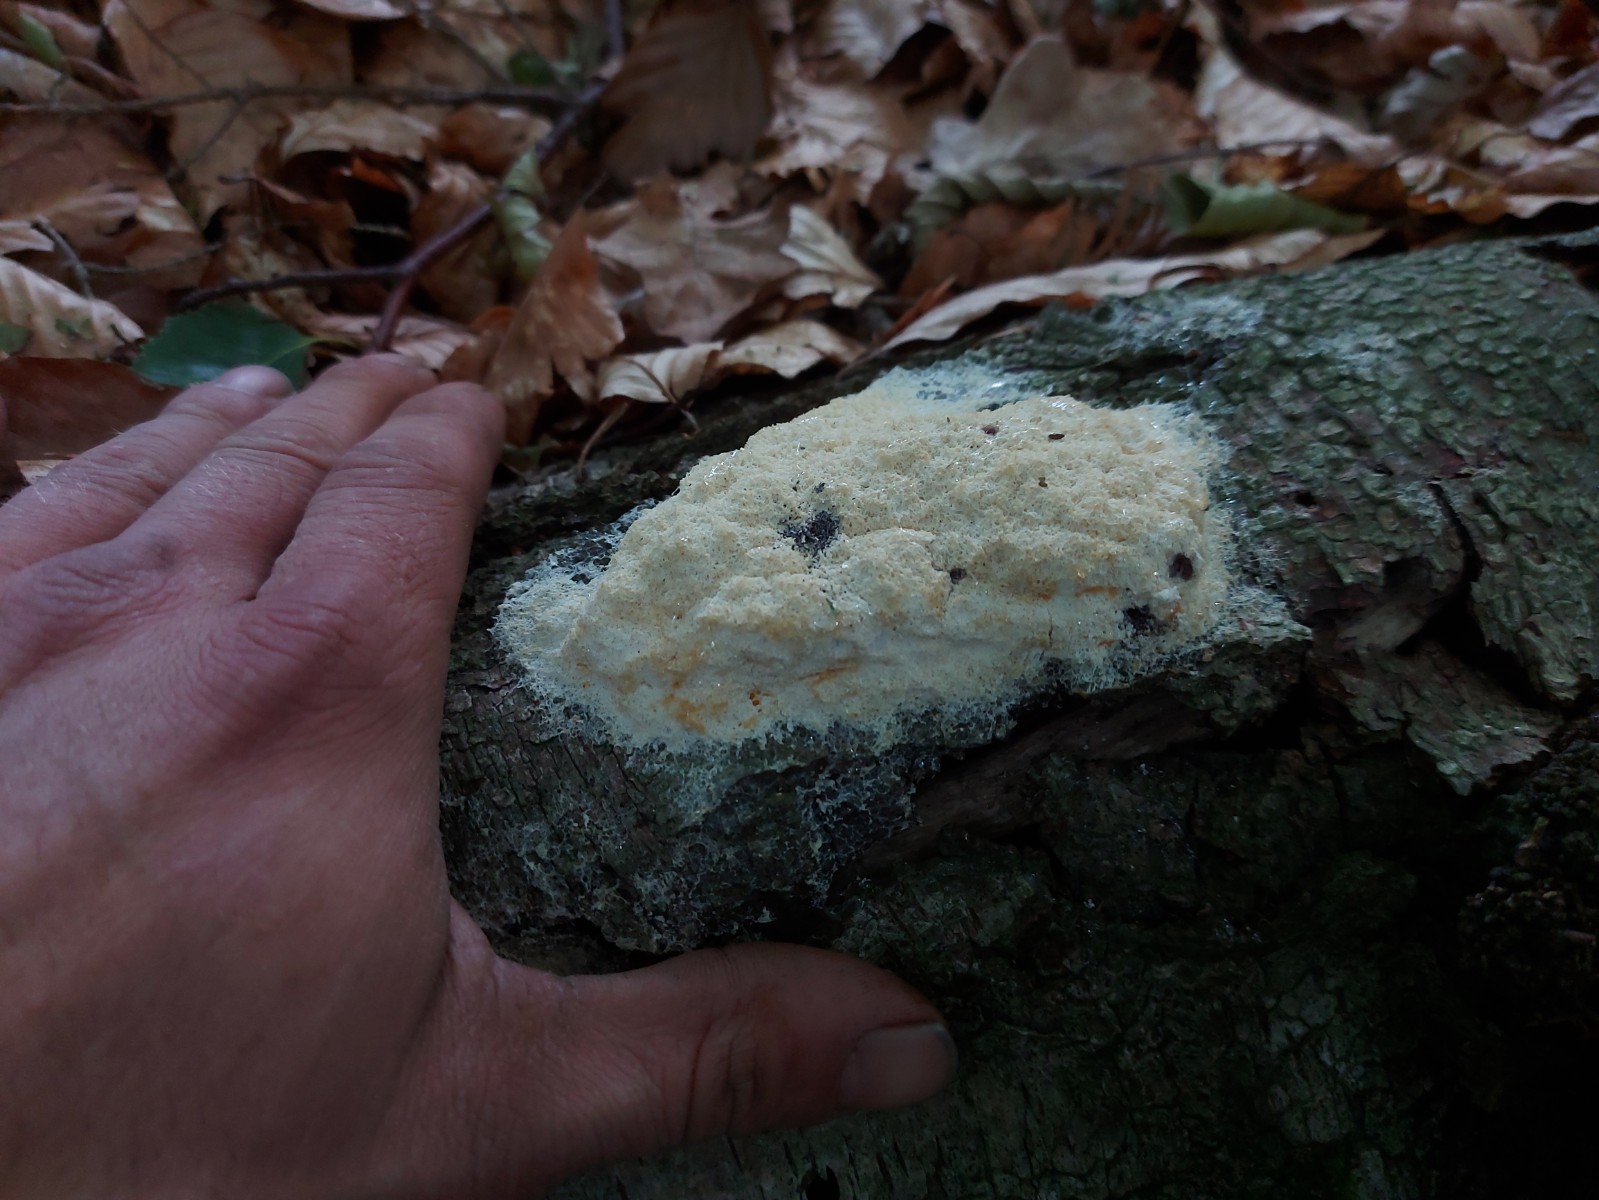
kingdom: Protozoa
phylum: Mycetozoa
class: Myxomycetes
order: Physarales
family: Physaraceae
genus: Fuligo
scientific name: Fuligo septica
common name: Dog vomit slime mold
